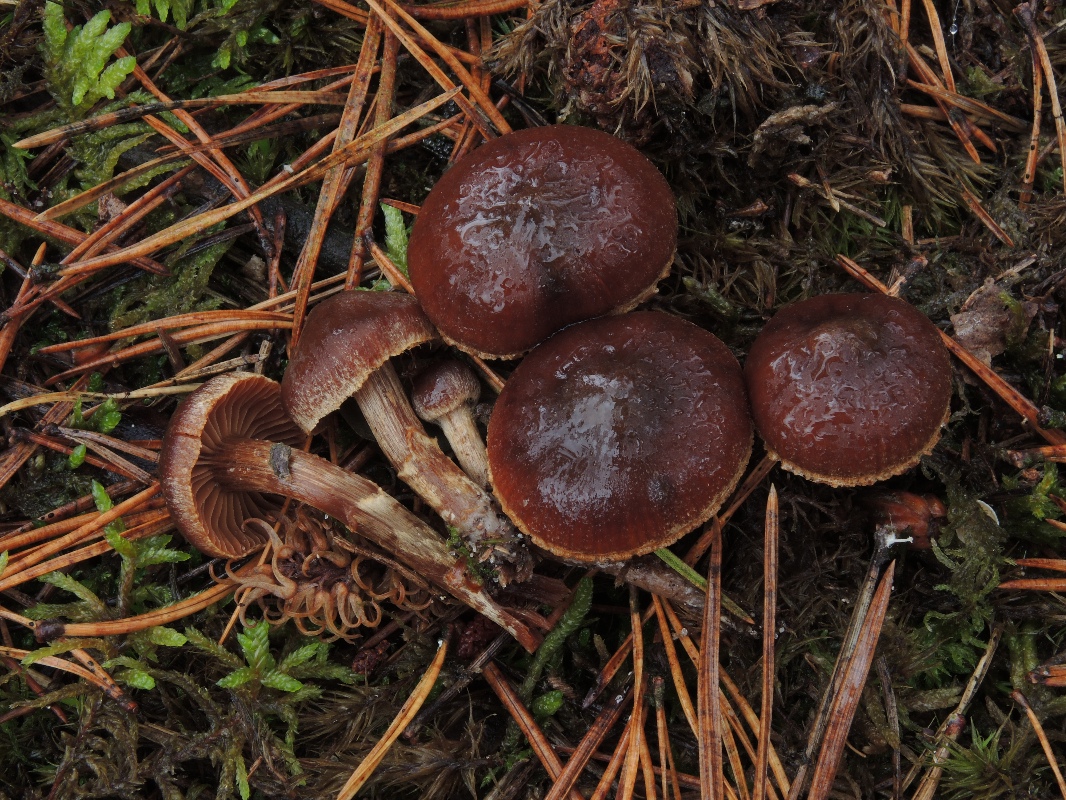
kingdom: Fungi
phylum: Basidiomycota
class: Agaricomycetes
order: Agaricales
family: Cortinariaceae
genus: Cortinarius
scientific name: Cortinarius fusisporus
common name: brunfnugget slørhat
